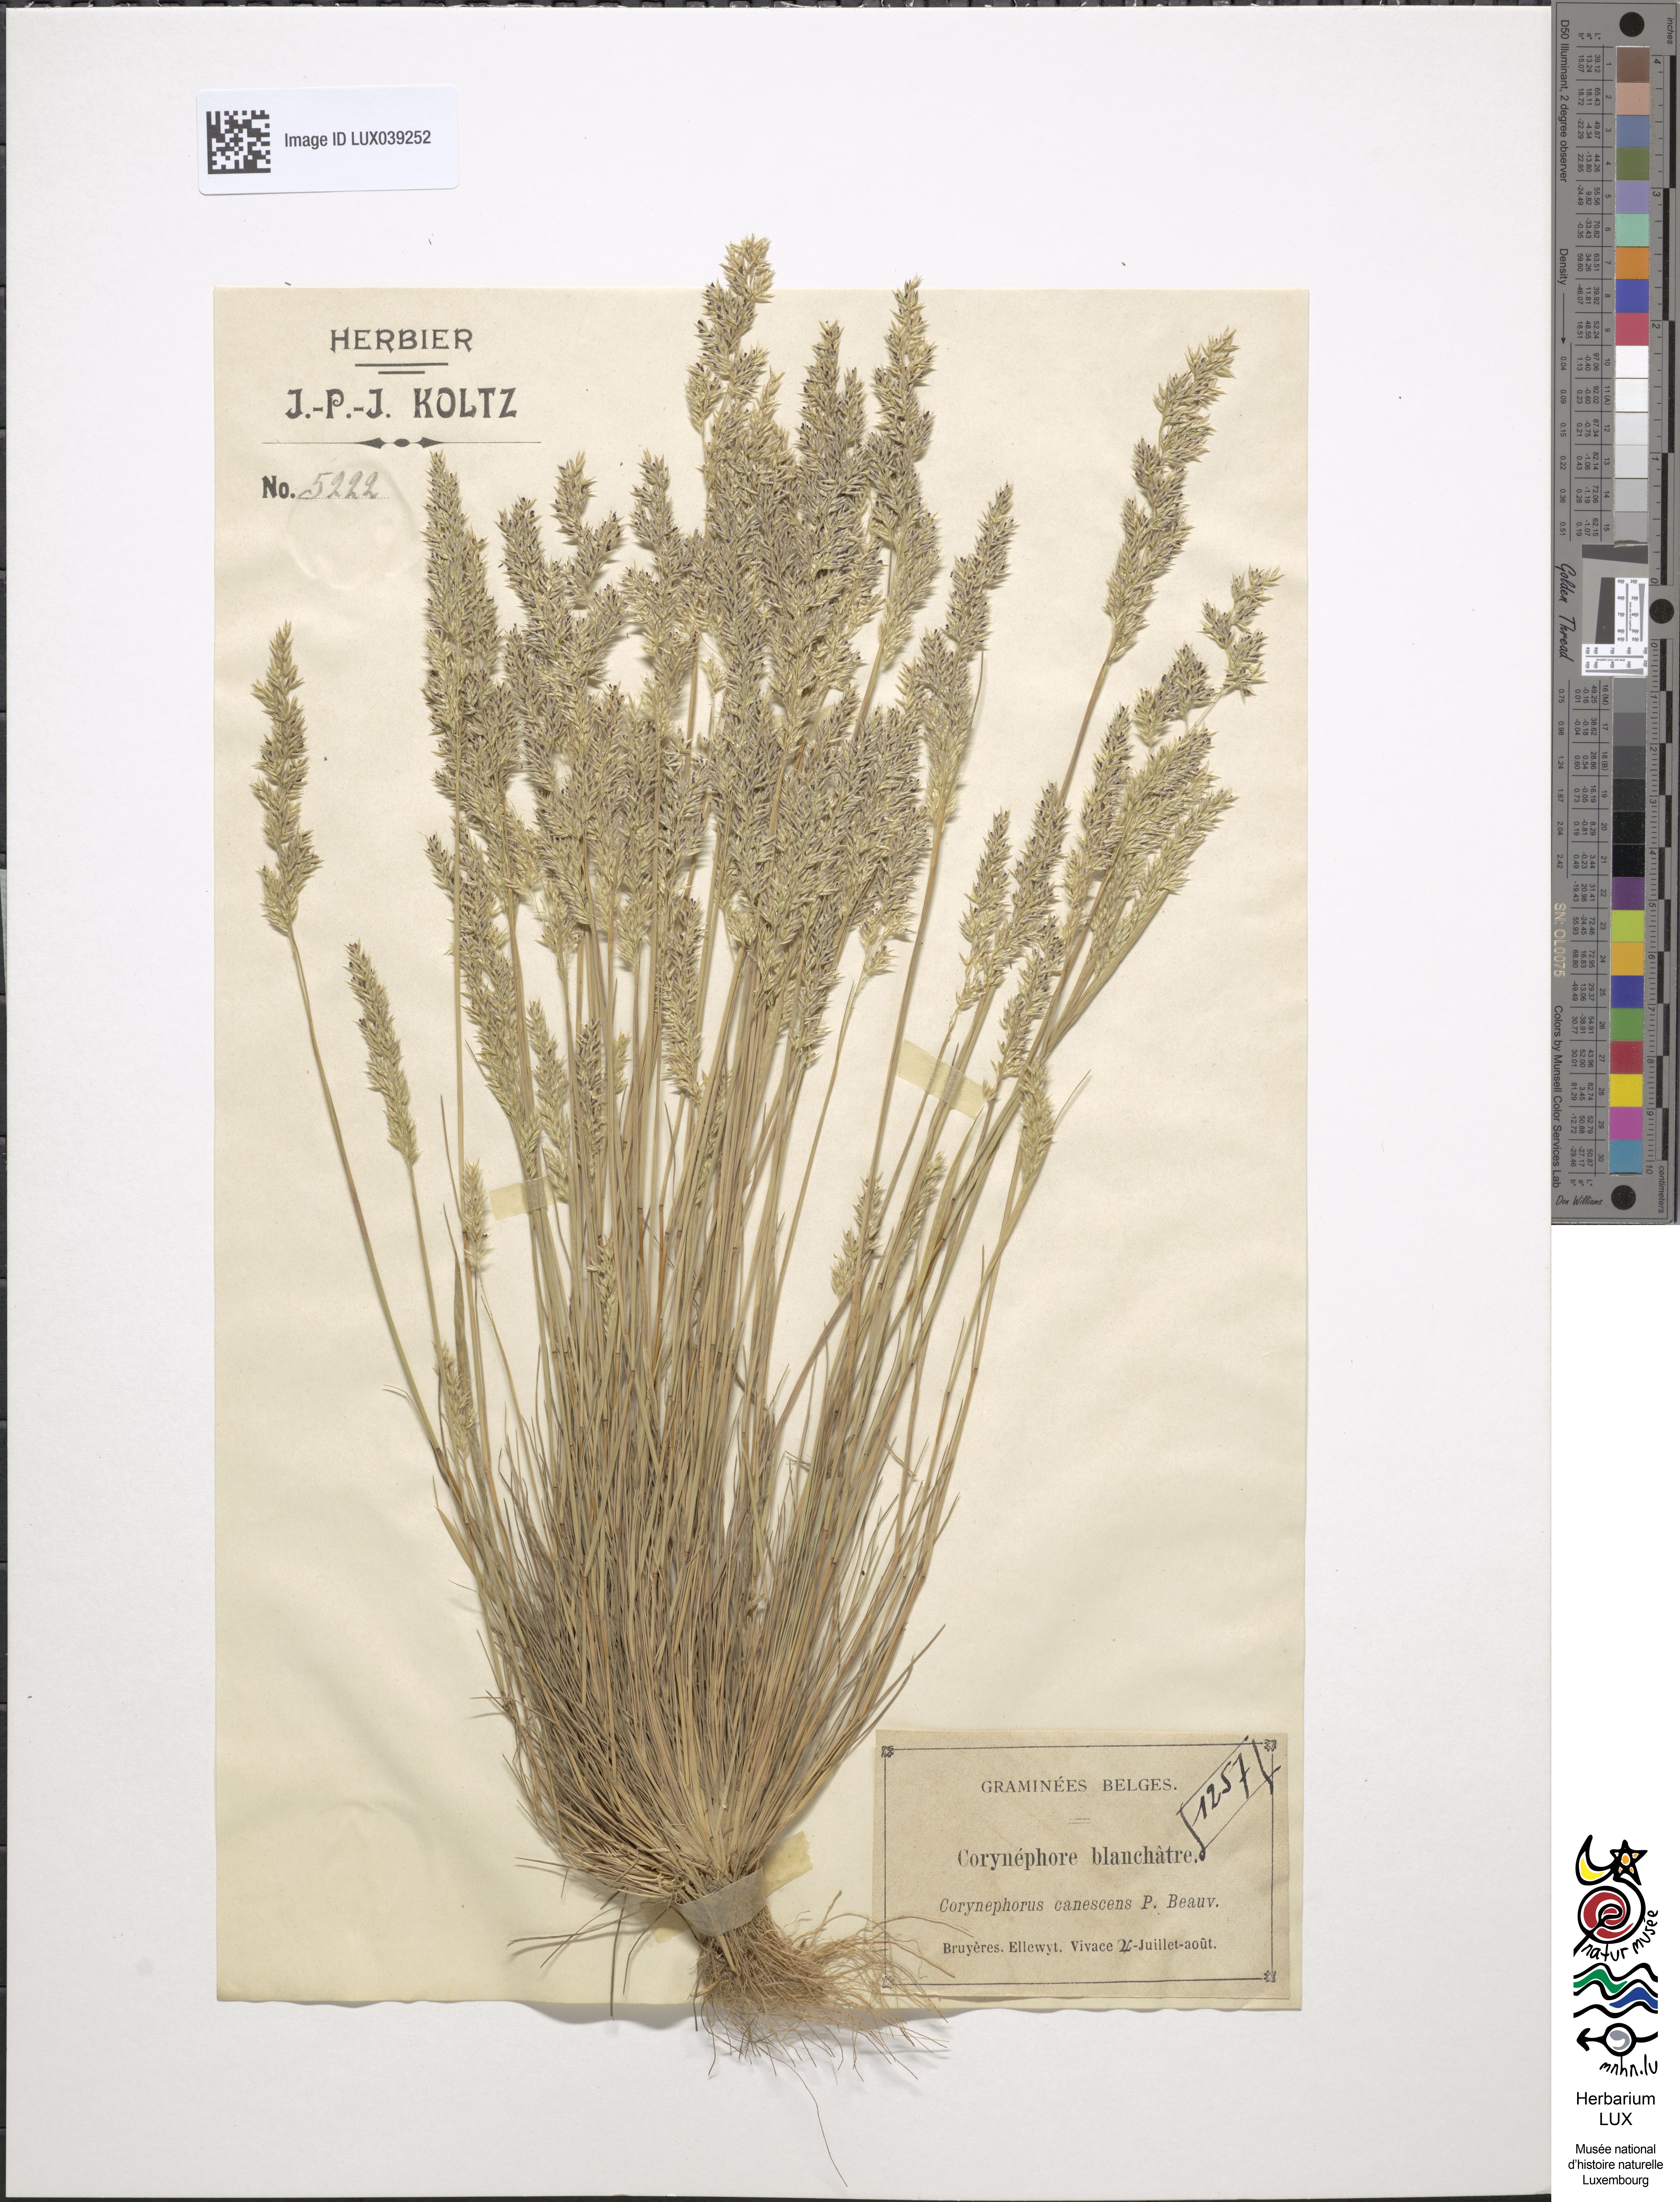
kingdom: Plantae
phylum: Tracheophyta
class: Liliopsida
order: Poales
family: Poaceae
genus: Corynephorus
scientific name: Corynephorus canescens
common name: Grey hair-grass
